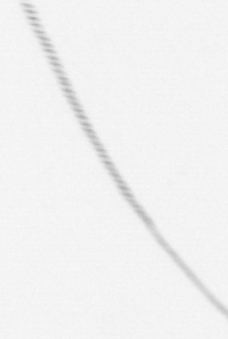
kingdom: Chromista
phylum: Ochrophyta
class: Bacillariophyceae
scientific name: Bacillariophyceae
